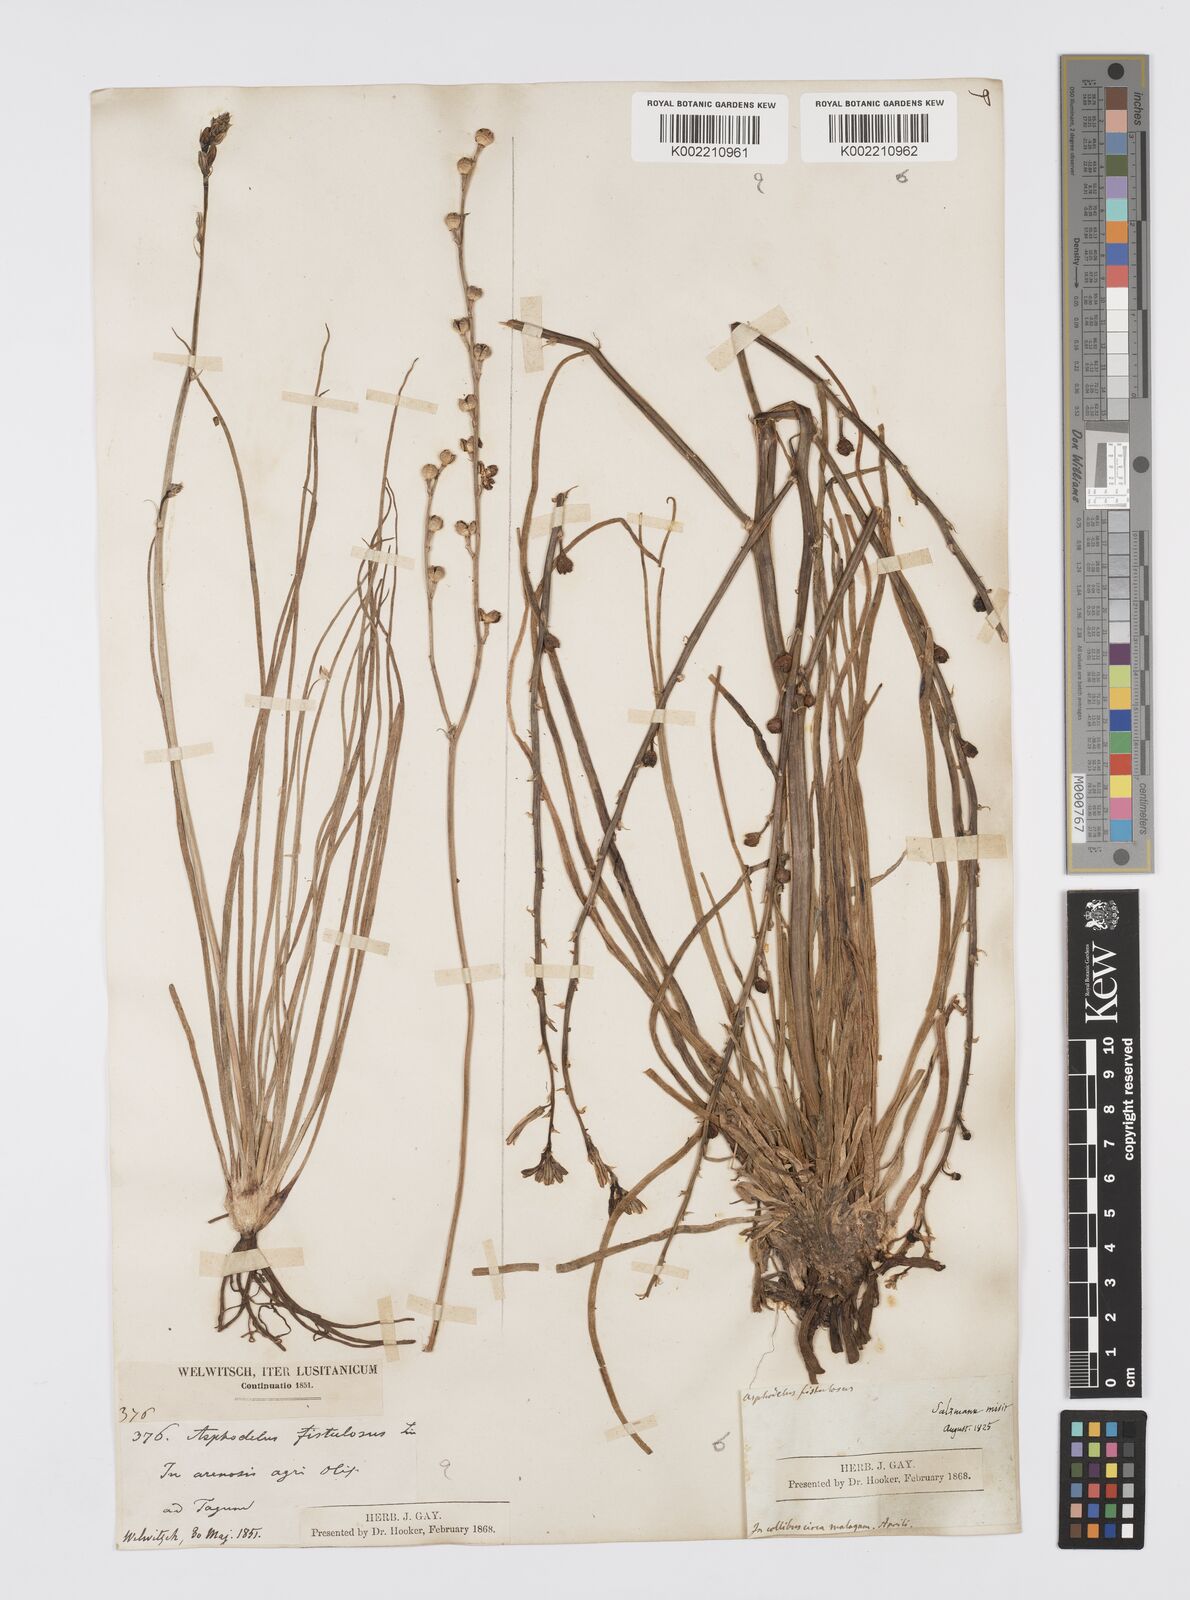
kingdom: Plantae
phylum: Tracheophyta
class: Liliopsida
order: Asparagales
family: Asphodelaceae
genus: Asphodelus
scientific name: Asphodelus fistulosus
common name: Onionweed
